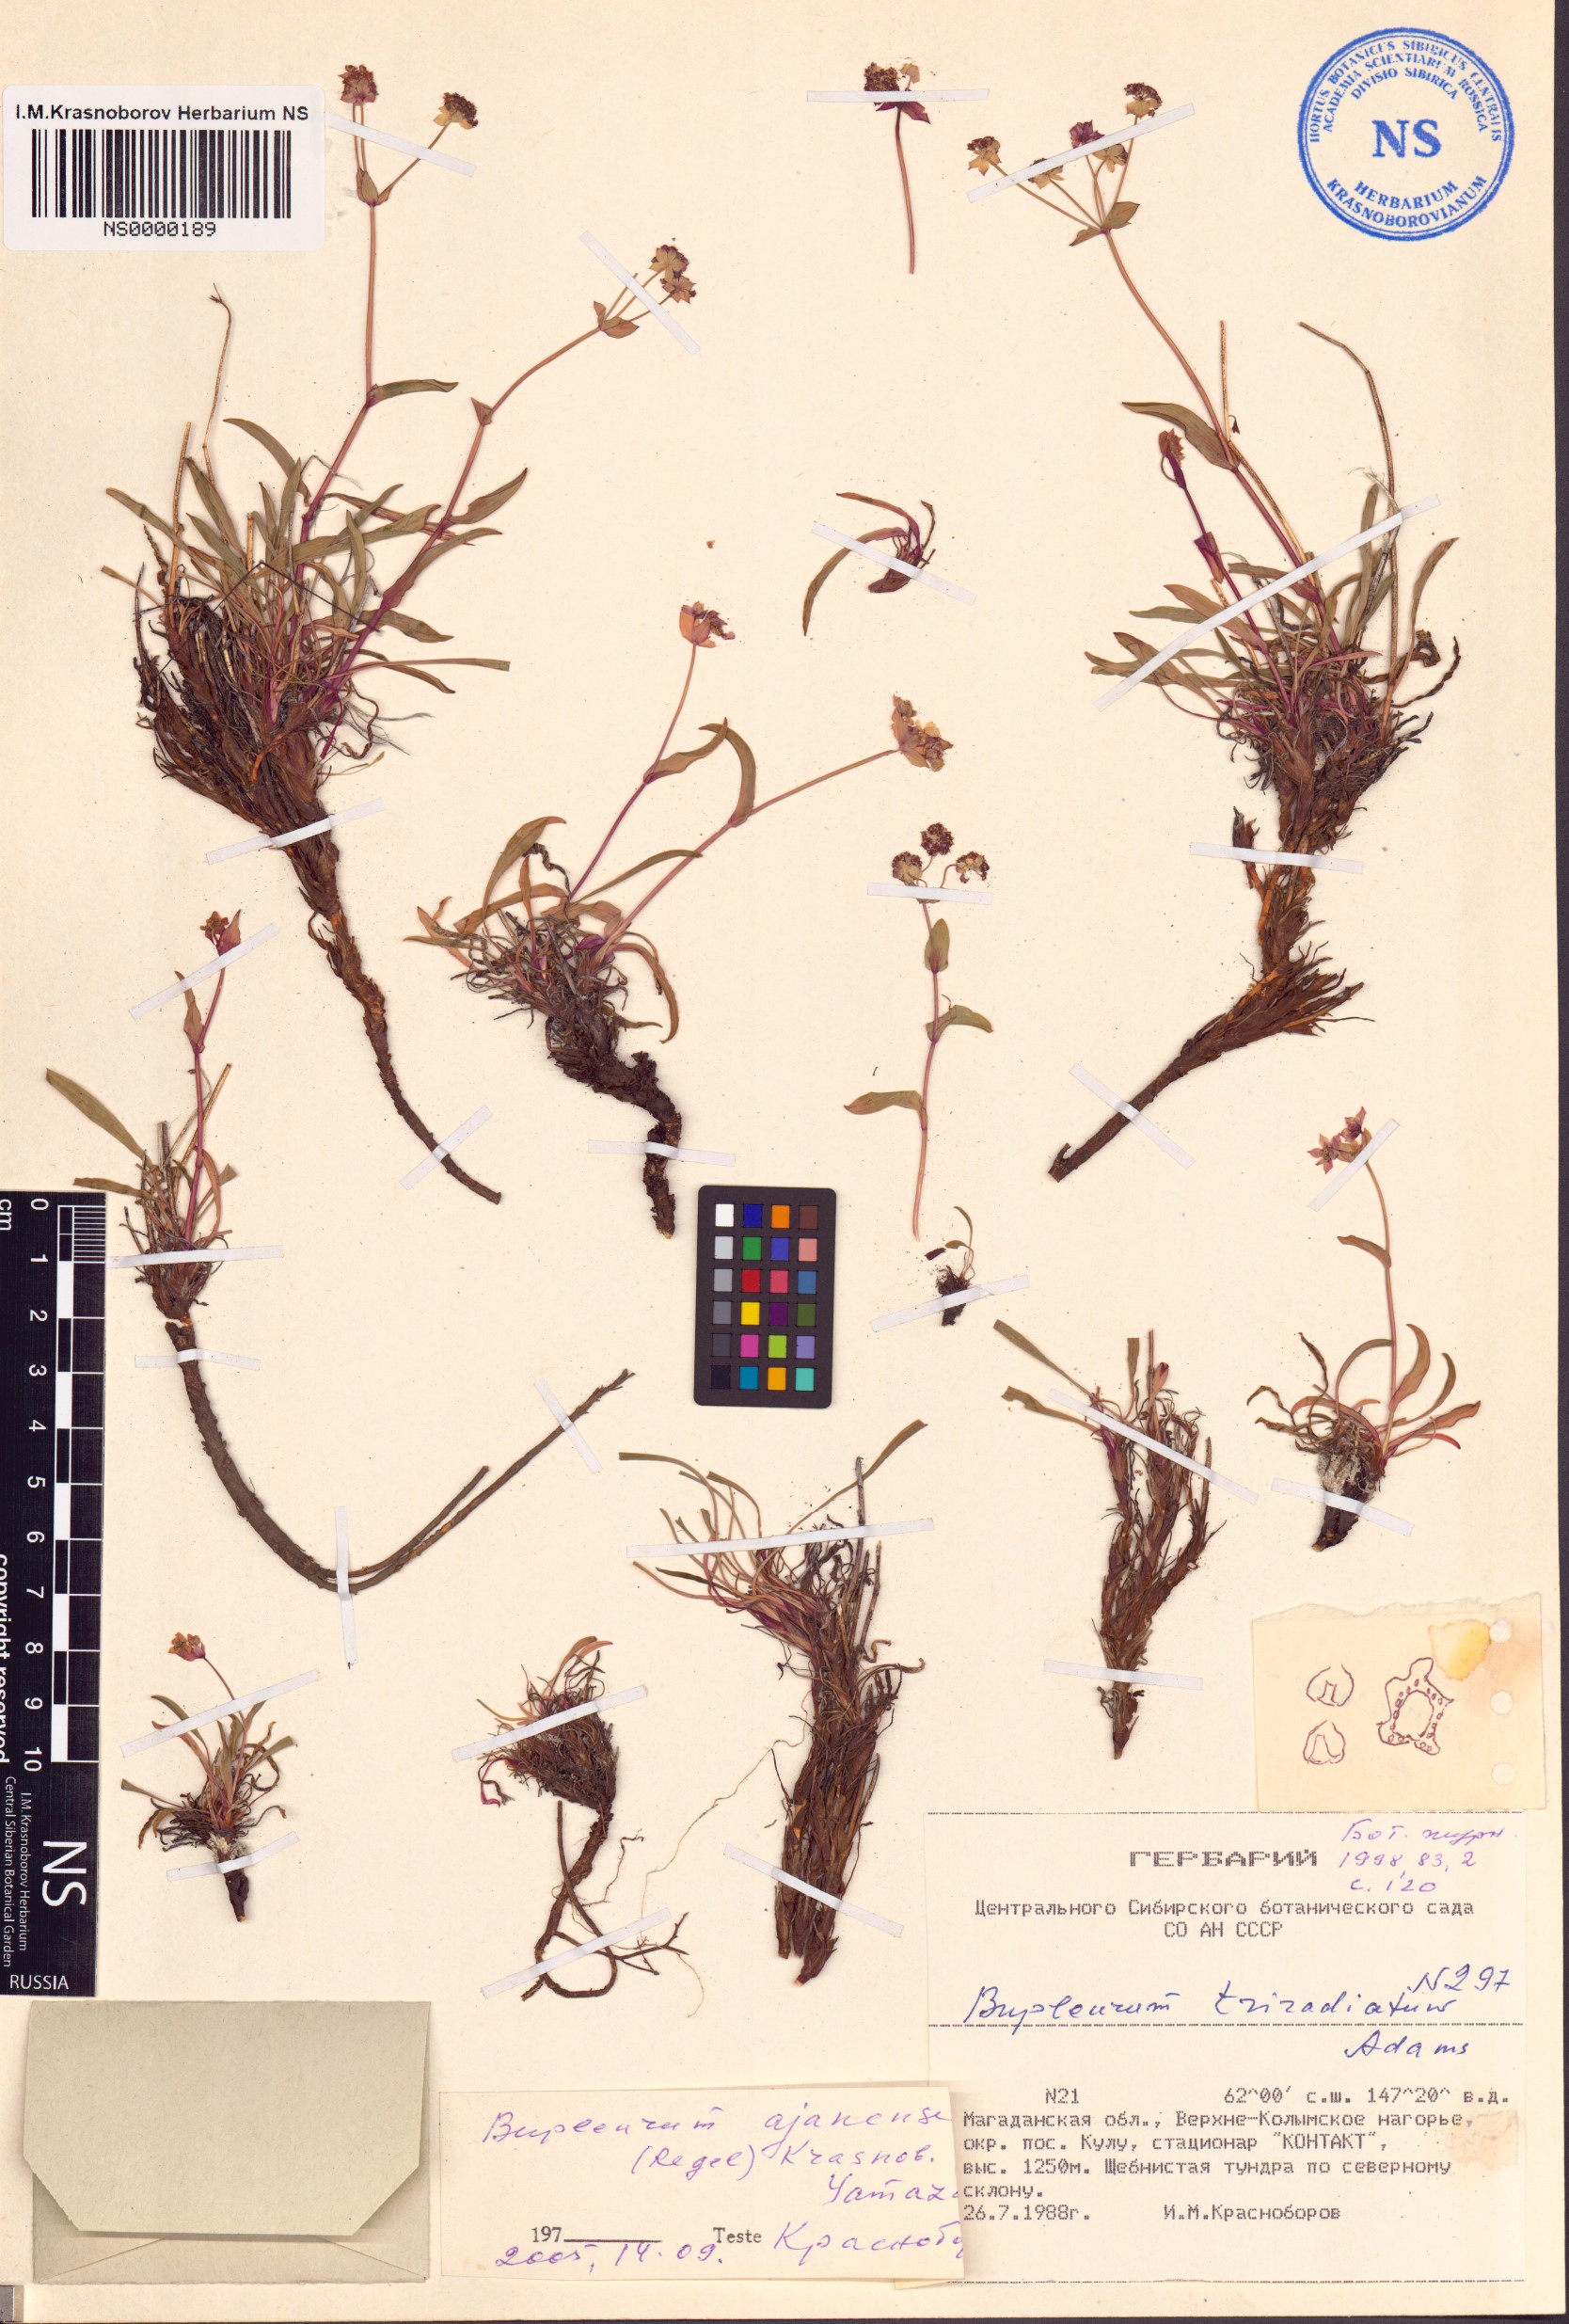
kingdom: Plantae
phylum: Tracheophyta
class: Magnoliopsida
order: Apiales
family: Apiaceae
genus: Bupleurum
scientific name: Bupleurum triradiatum
